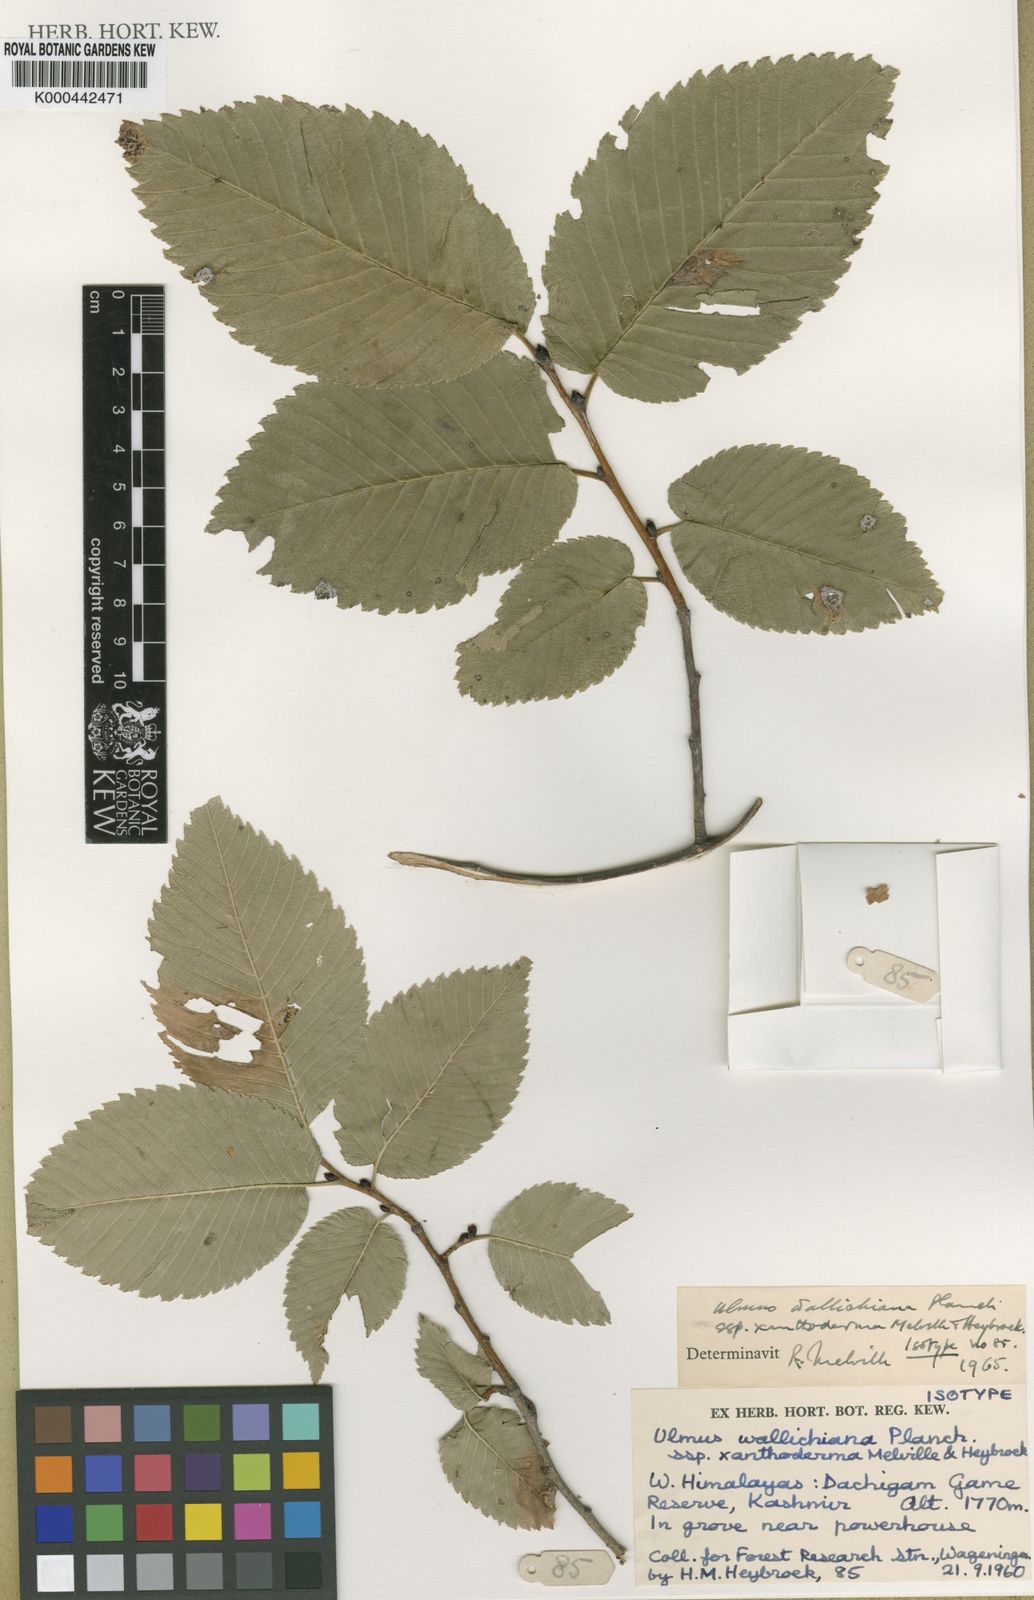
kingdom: Plantae
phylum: Tracheophyta
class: Magnoliopsida
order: Rosales
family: Ulmaceae
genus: Ulmus
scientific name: Ulmus wallichiana
